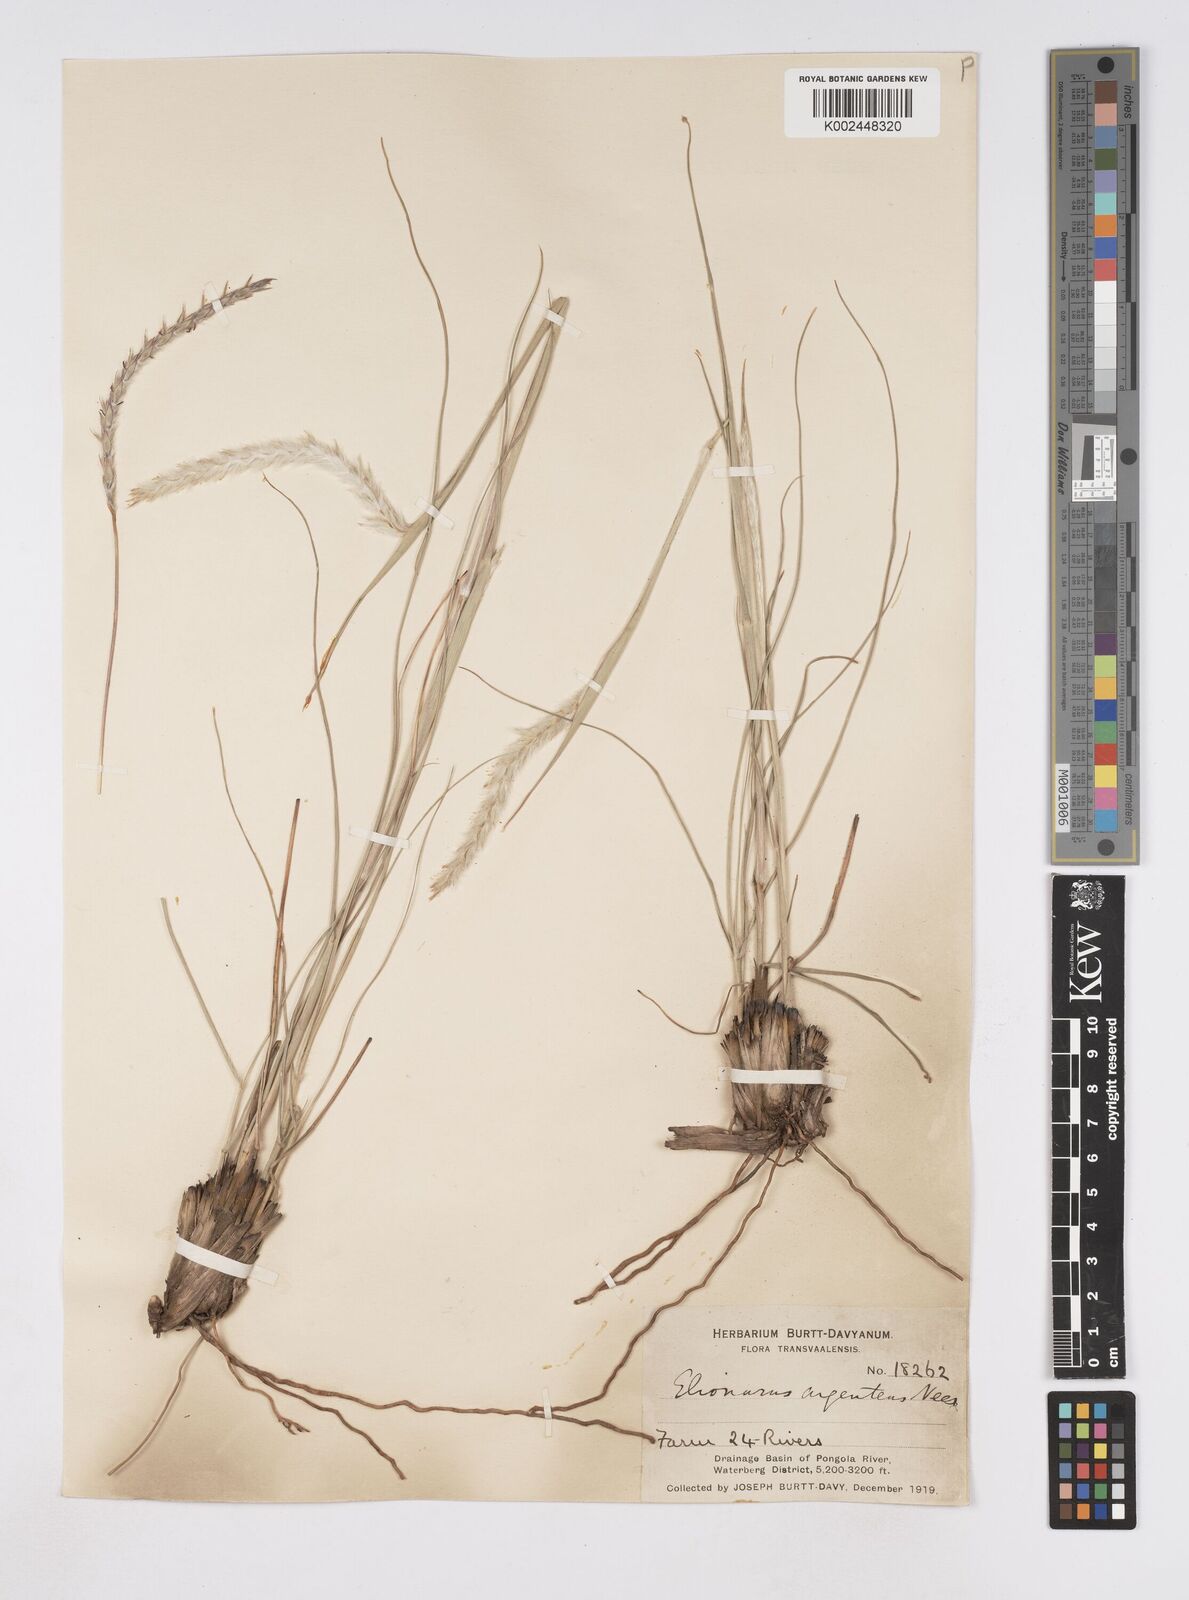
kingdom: Plantae
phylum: Tracheophyta
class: Liliopsida
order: Poales
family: Poaceae
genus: Elionurus
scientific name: Elionurus muticus
